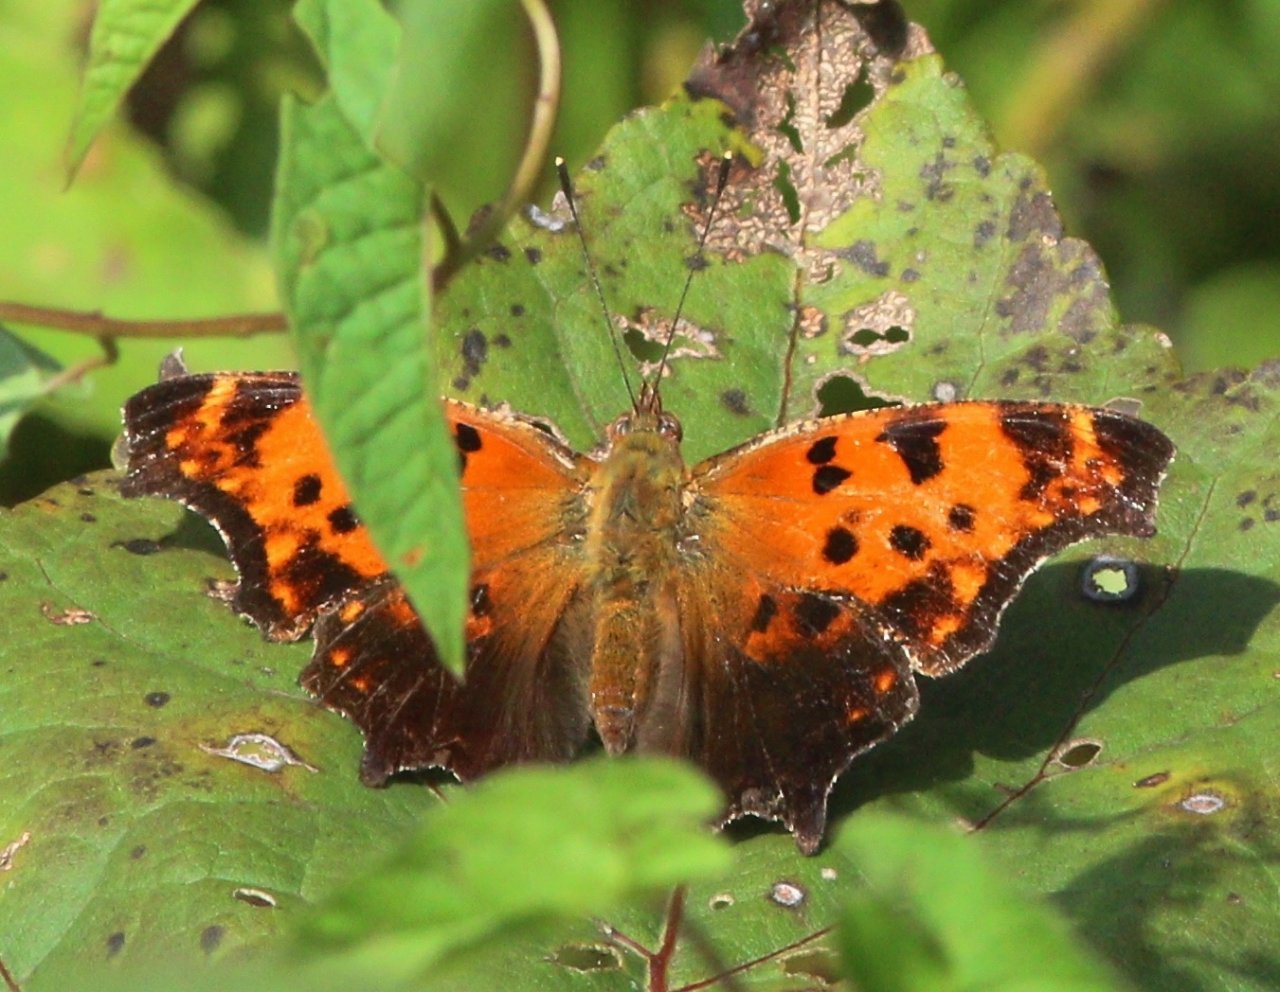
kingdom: Animalia
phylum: Arthropoda
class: Insecta
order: Lepidoptera
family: Nymphalidae
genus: Polygonia
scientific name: Polygonia comma
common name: Eastern Comma
